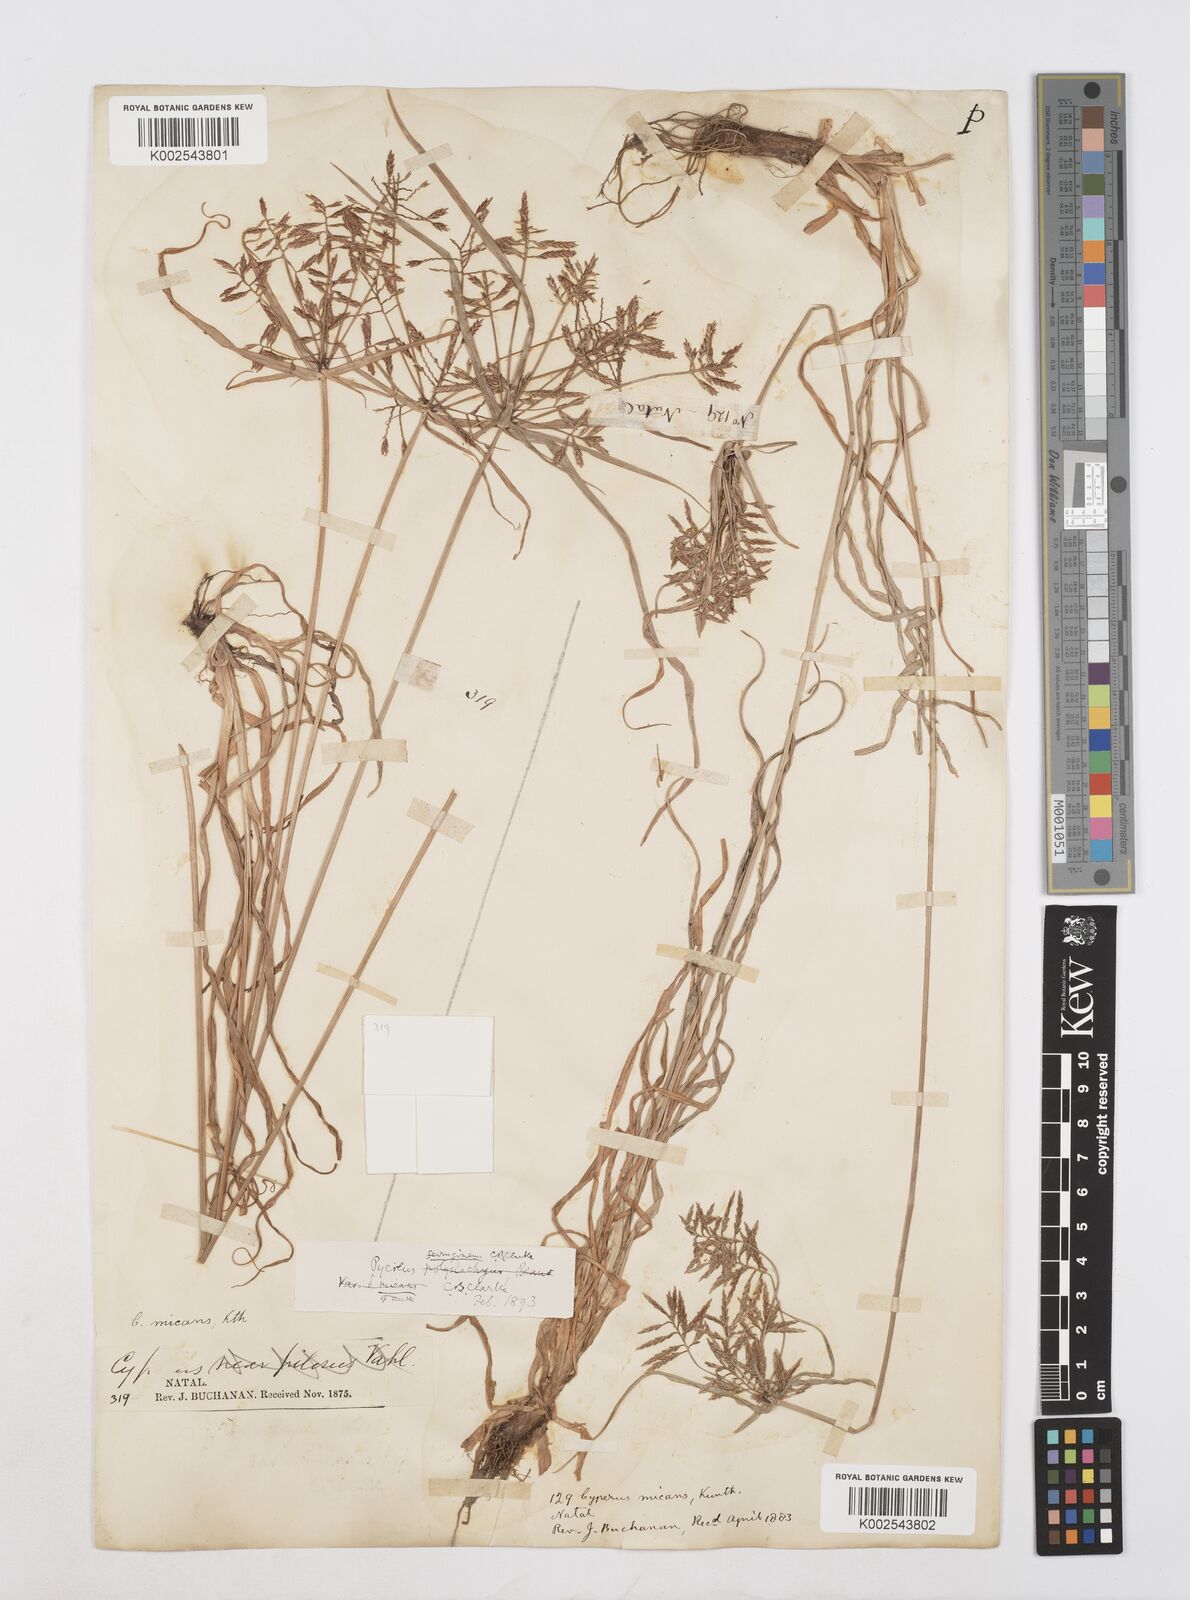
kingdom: Plantae
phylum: Tracheophyta
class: Liliopsida
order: Poales
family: Cyperaceae
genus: Cyperus
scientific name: Cyperus intactus
